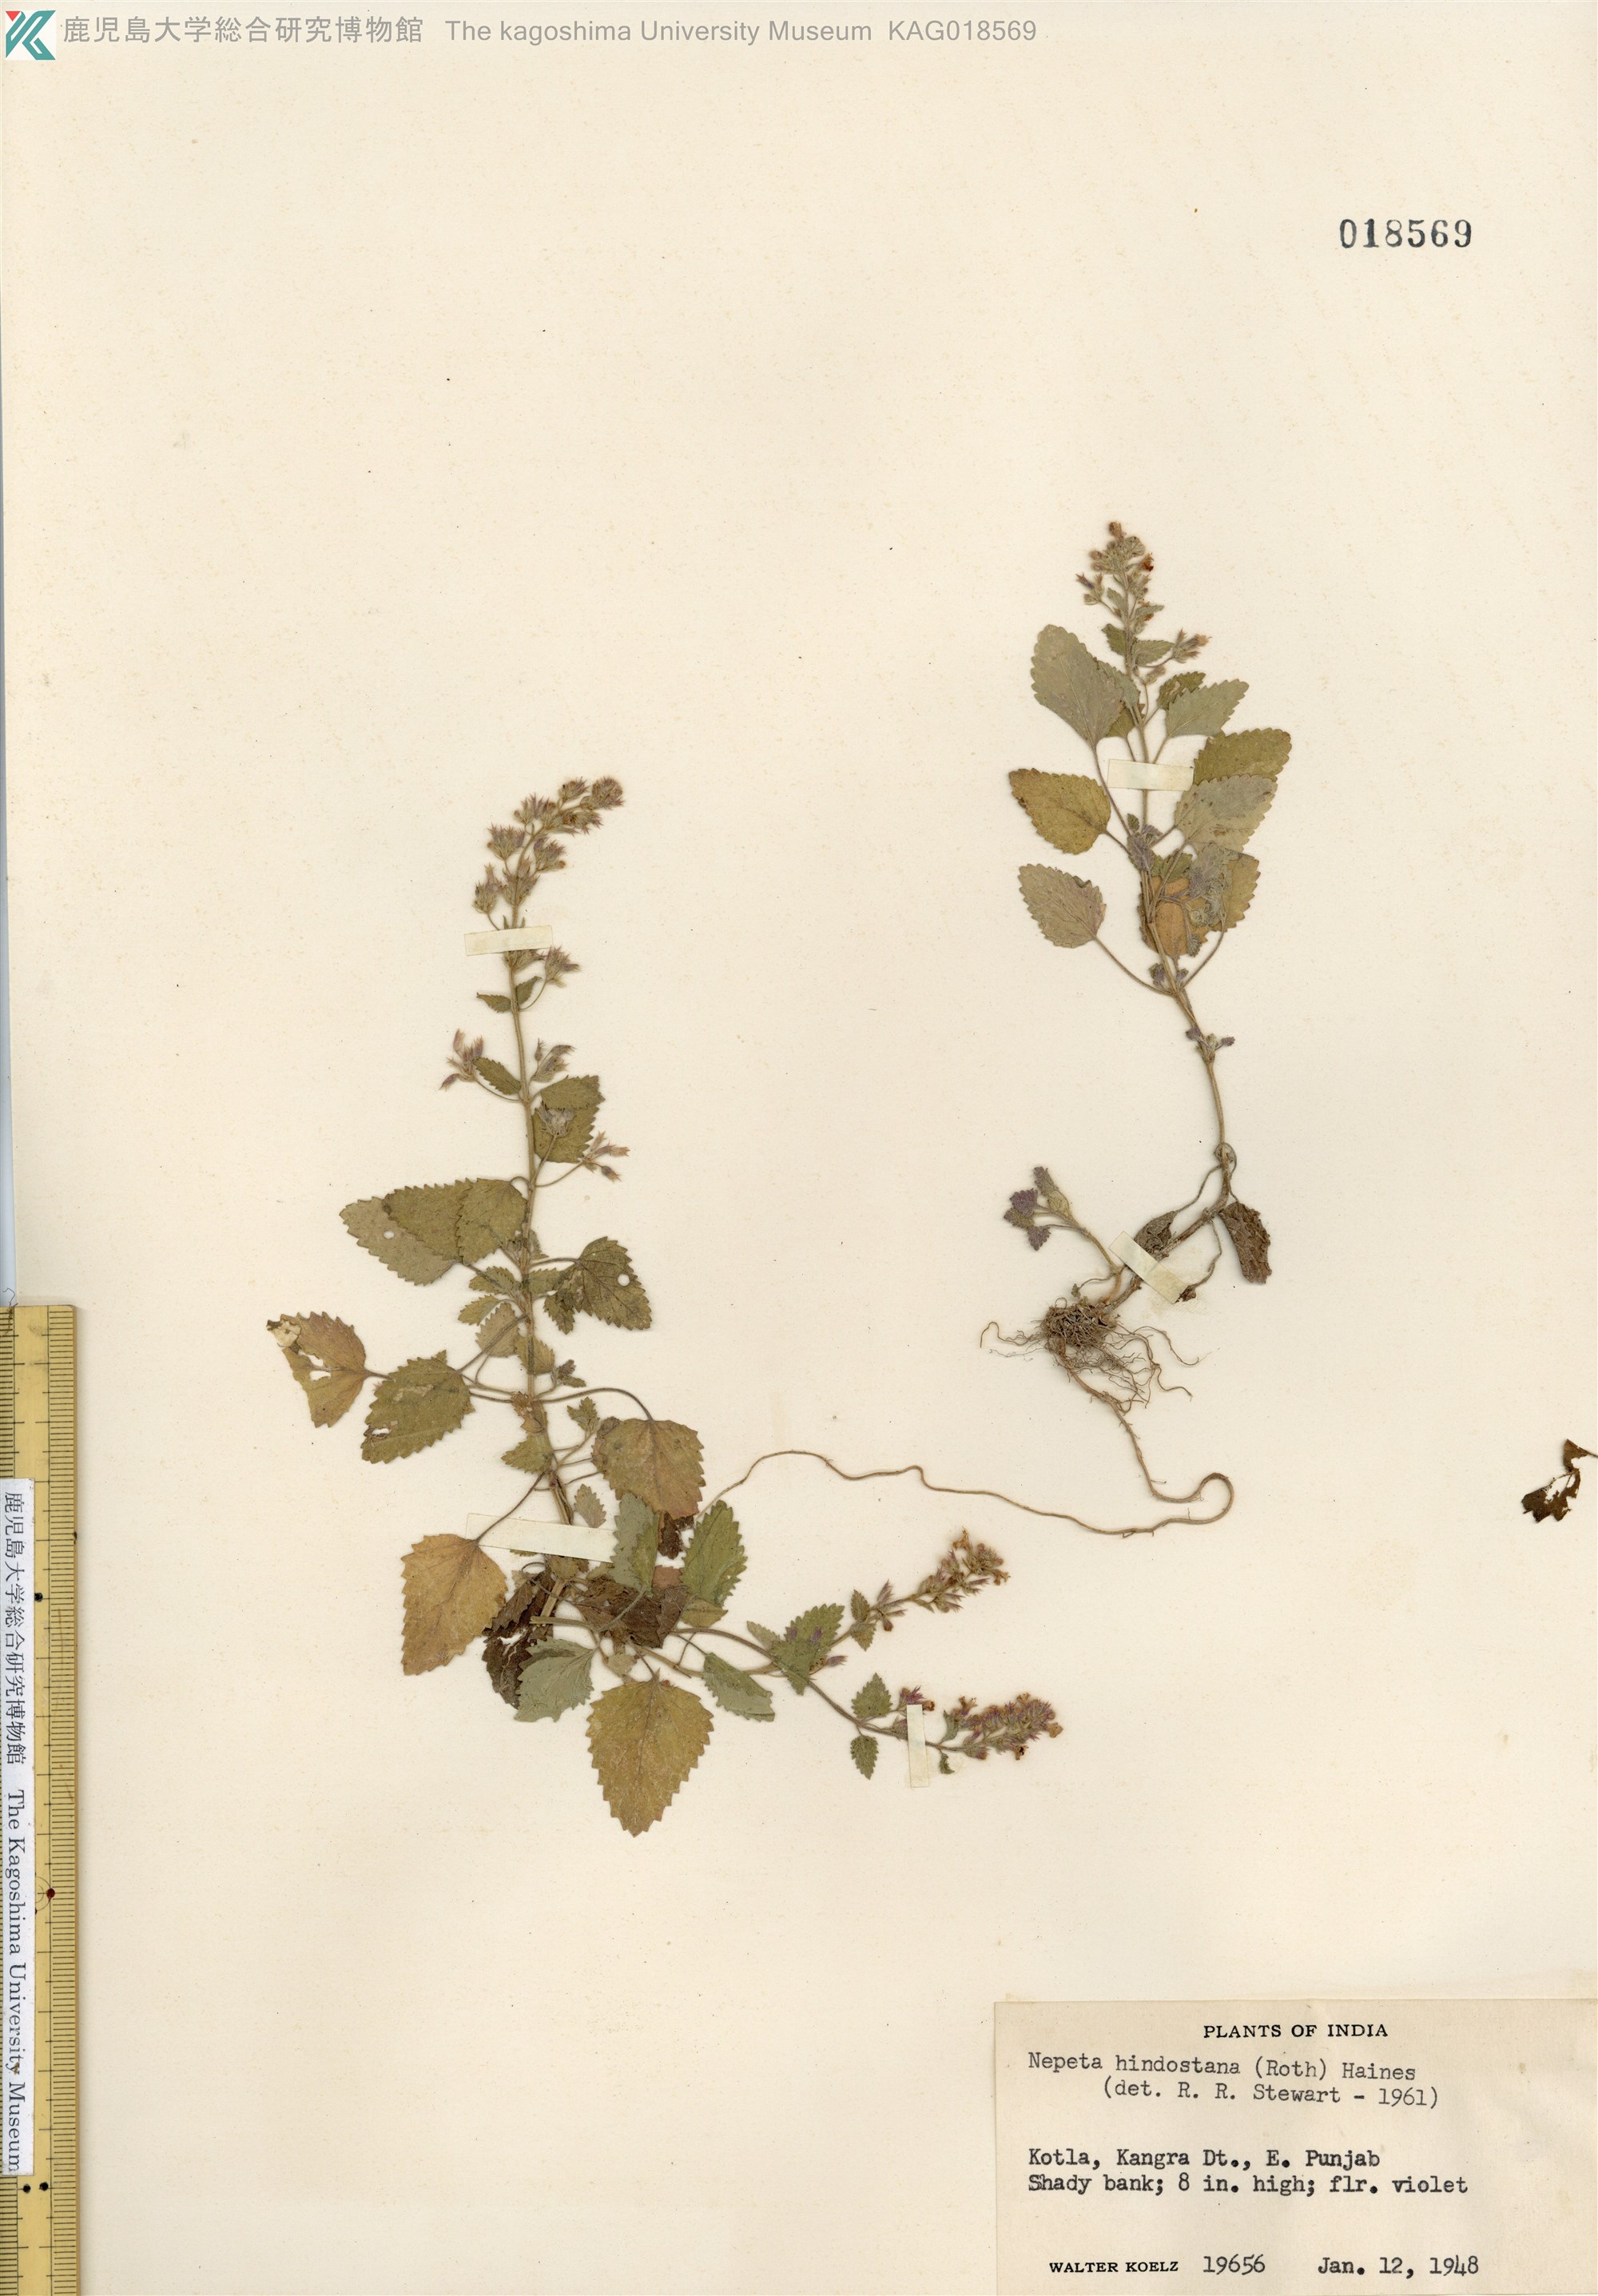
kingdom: Plantae
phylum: Tracheophyta
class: Magnoliopsida
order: Lamiales
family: Lamiaceae
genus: Nepeta
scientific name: Nepeta hindostana
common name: Indian catnip
